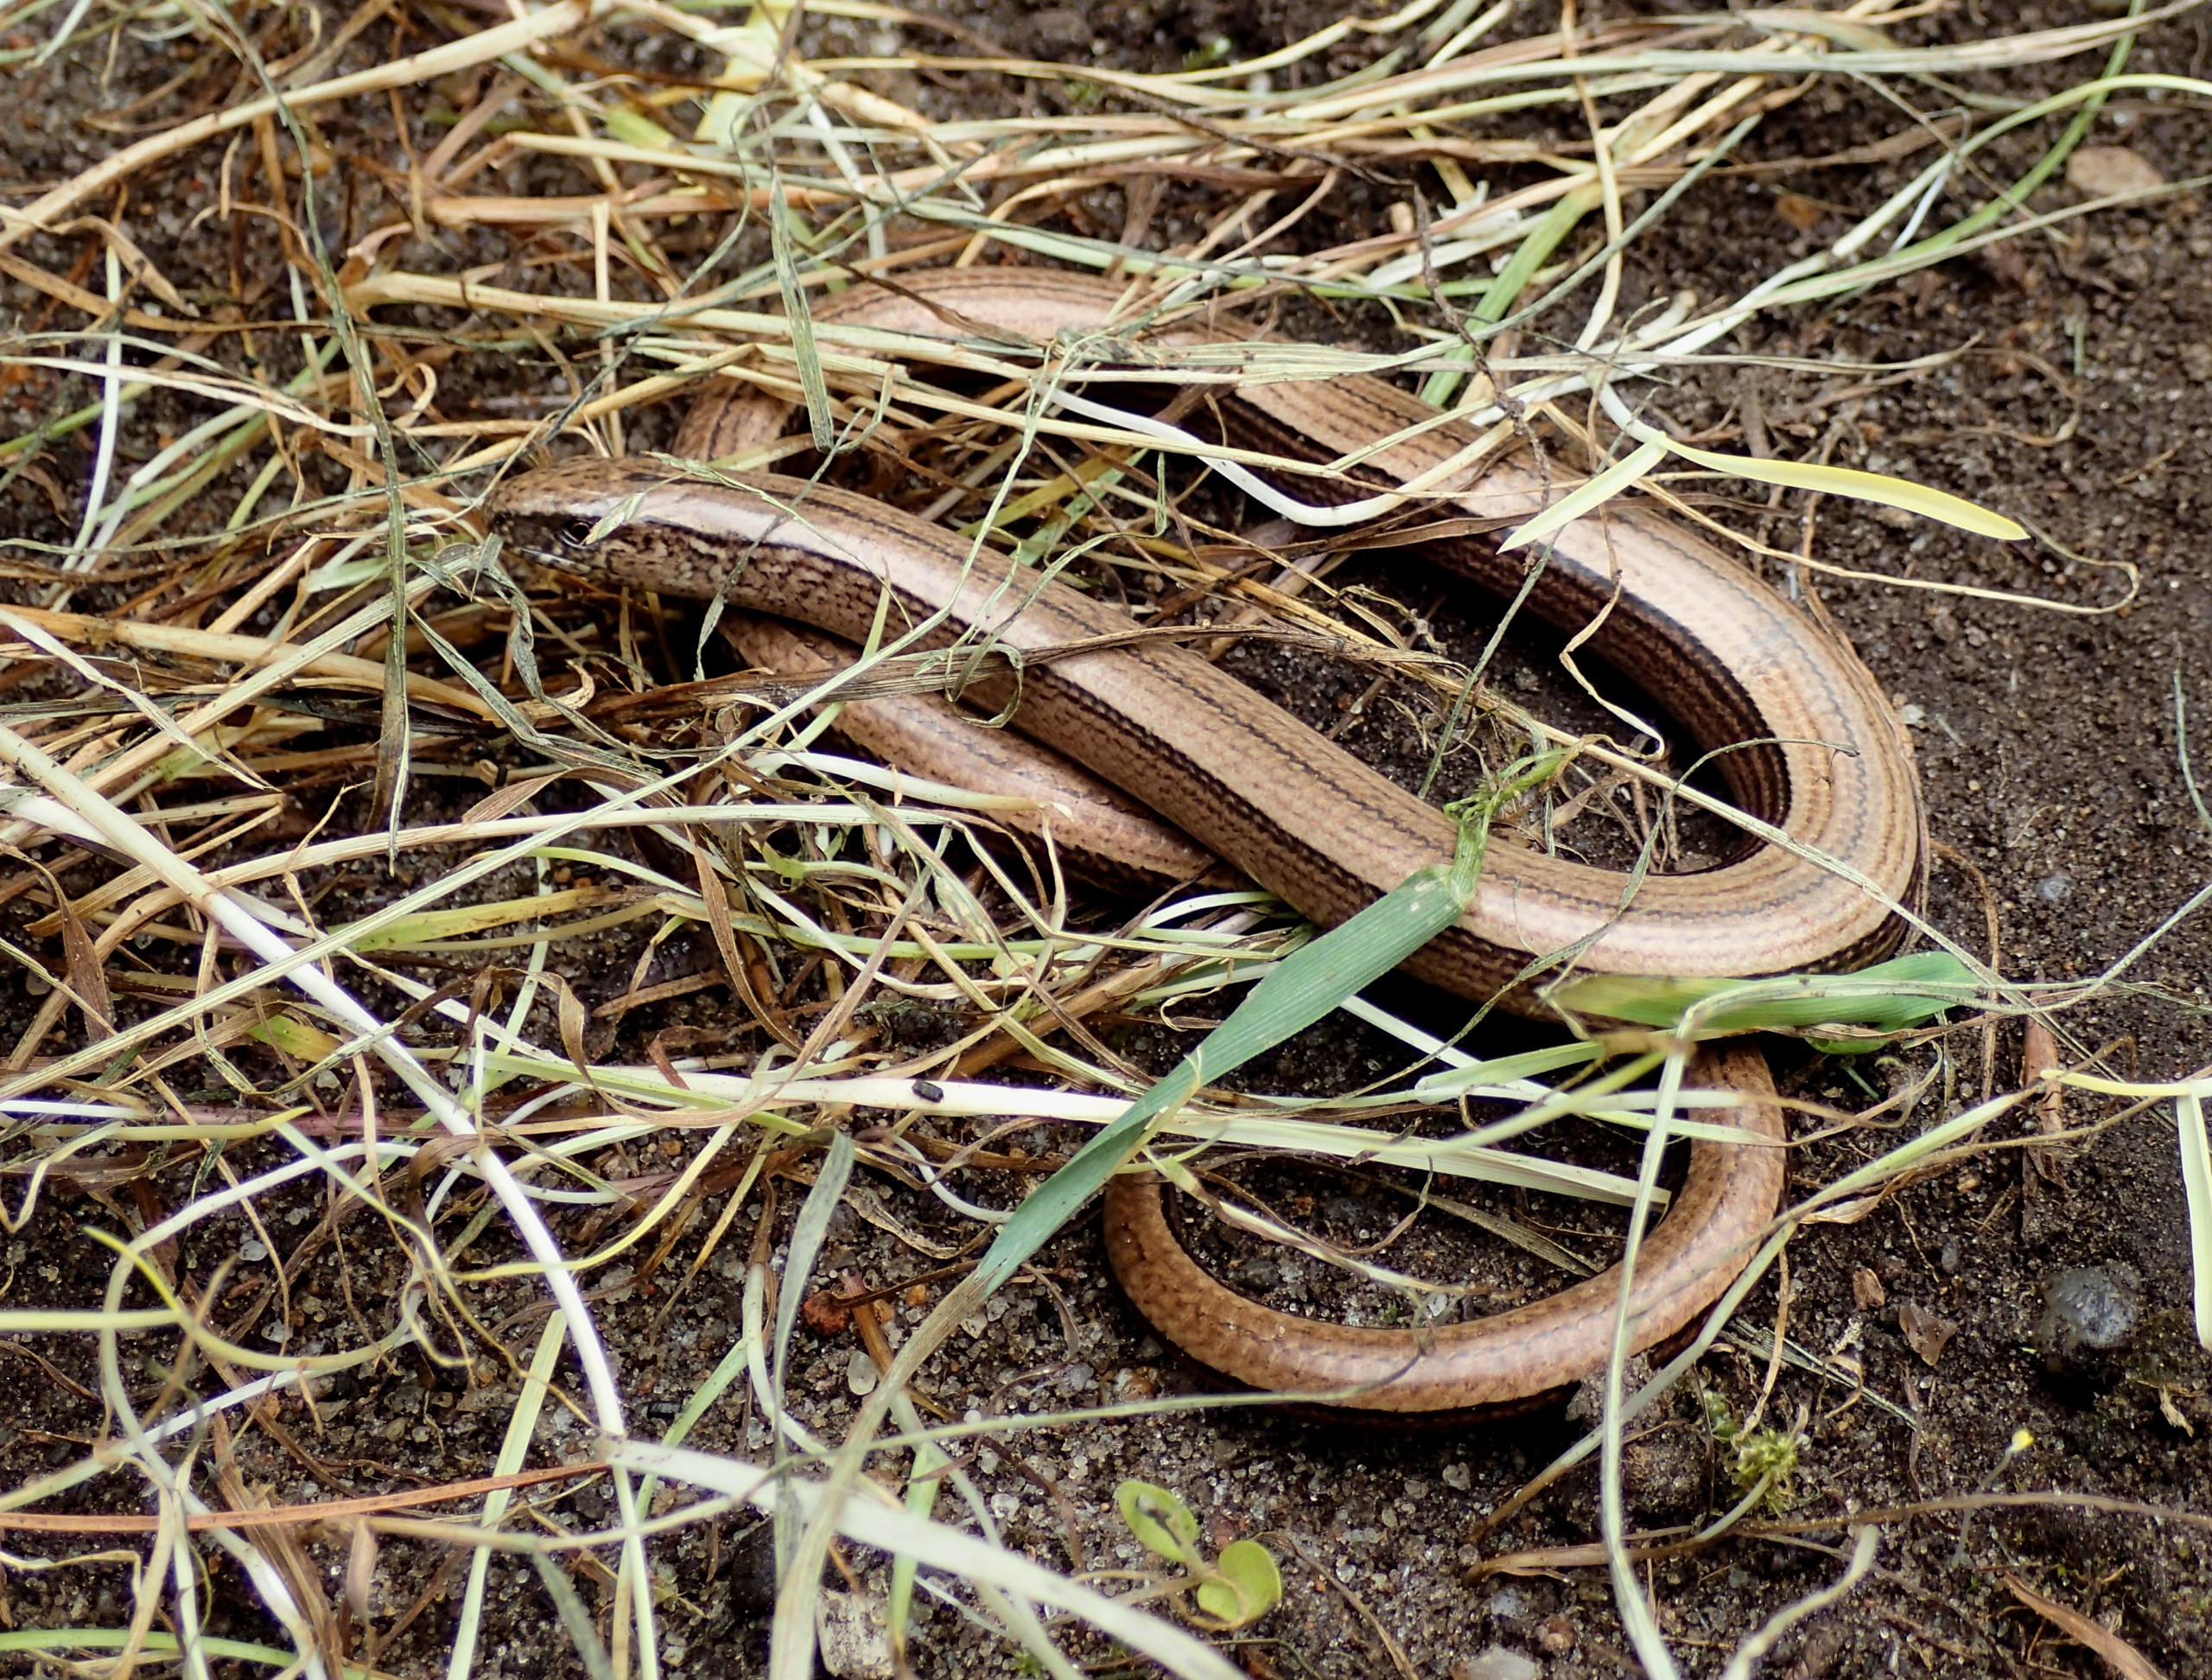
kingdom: Animalia
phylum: Chordata
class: Squamata
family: Anguidae
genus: Anguis
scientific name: Anguis fragilis
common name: Stålorm
